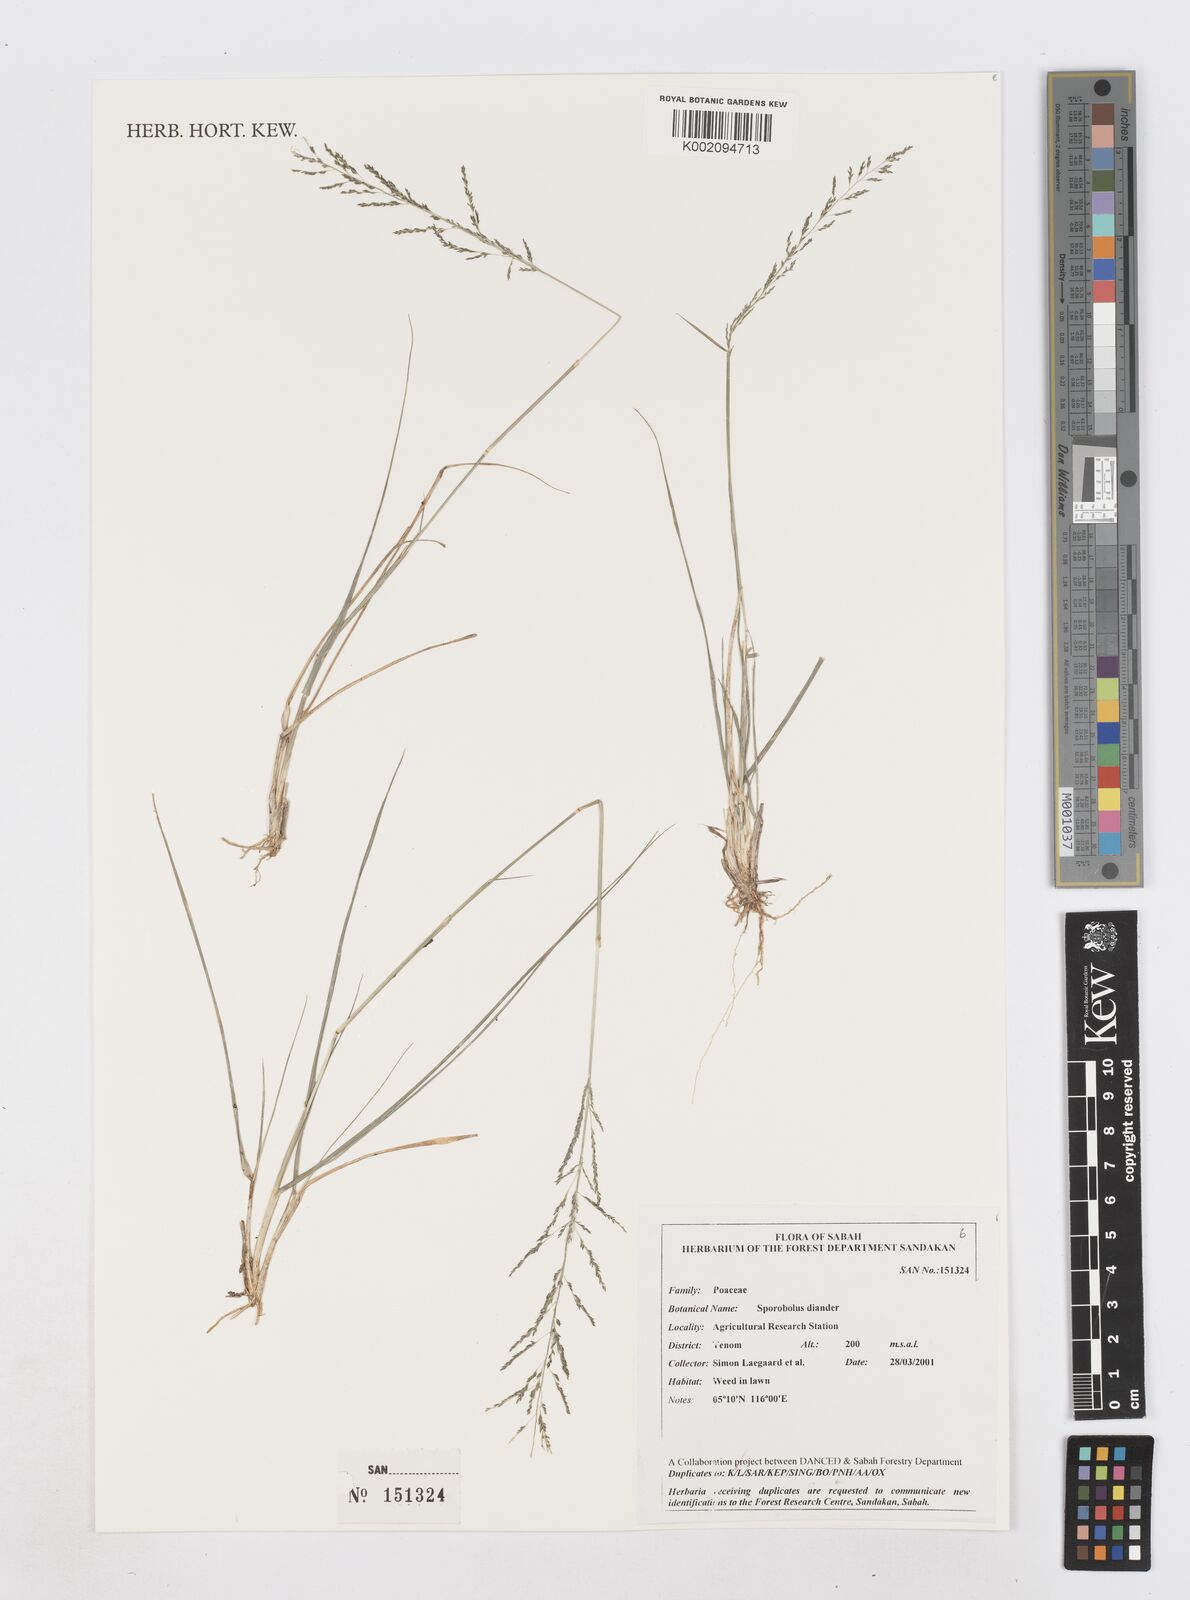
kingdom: Plantae
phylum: Tracheophyta
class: Liliopsida
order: Poales
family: Poaceae
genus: Sporobolus
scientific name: Sporobolus diandrus
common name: Tussock dropseed
